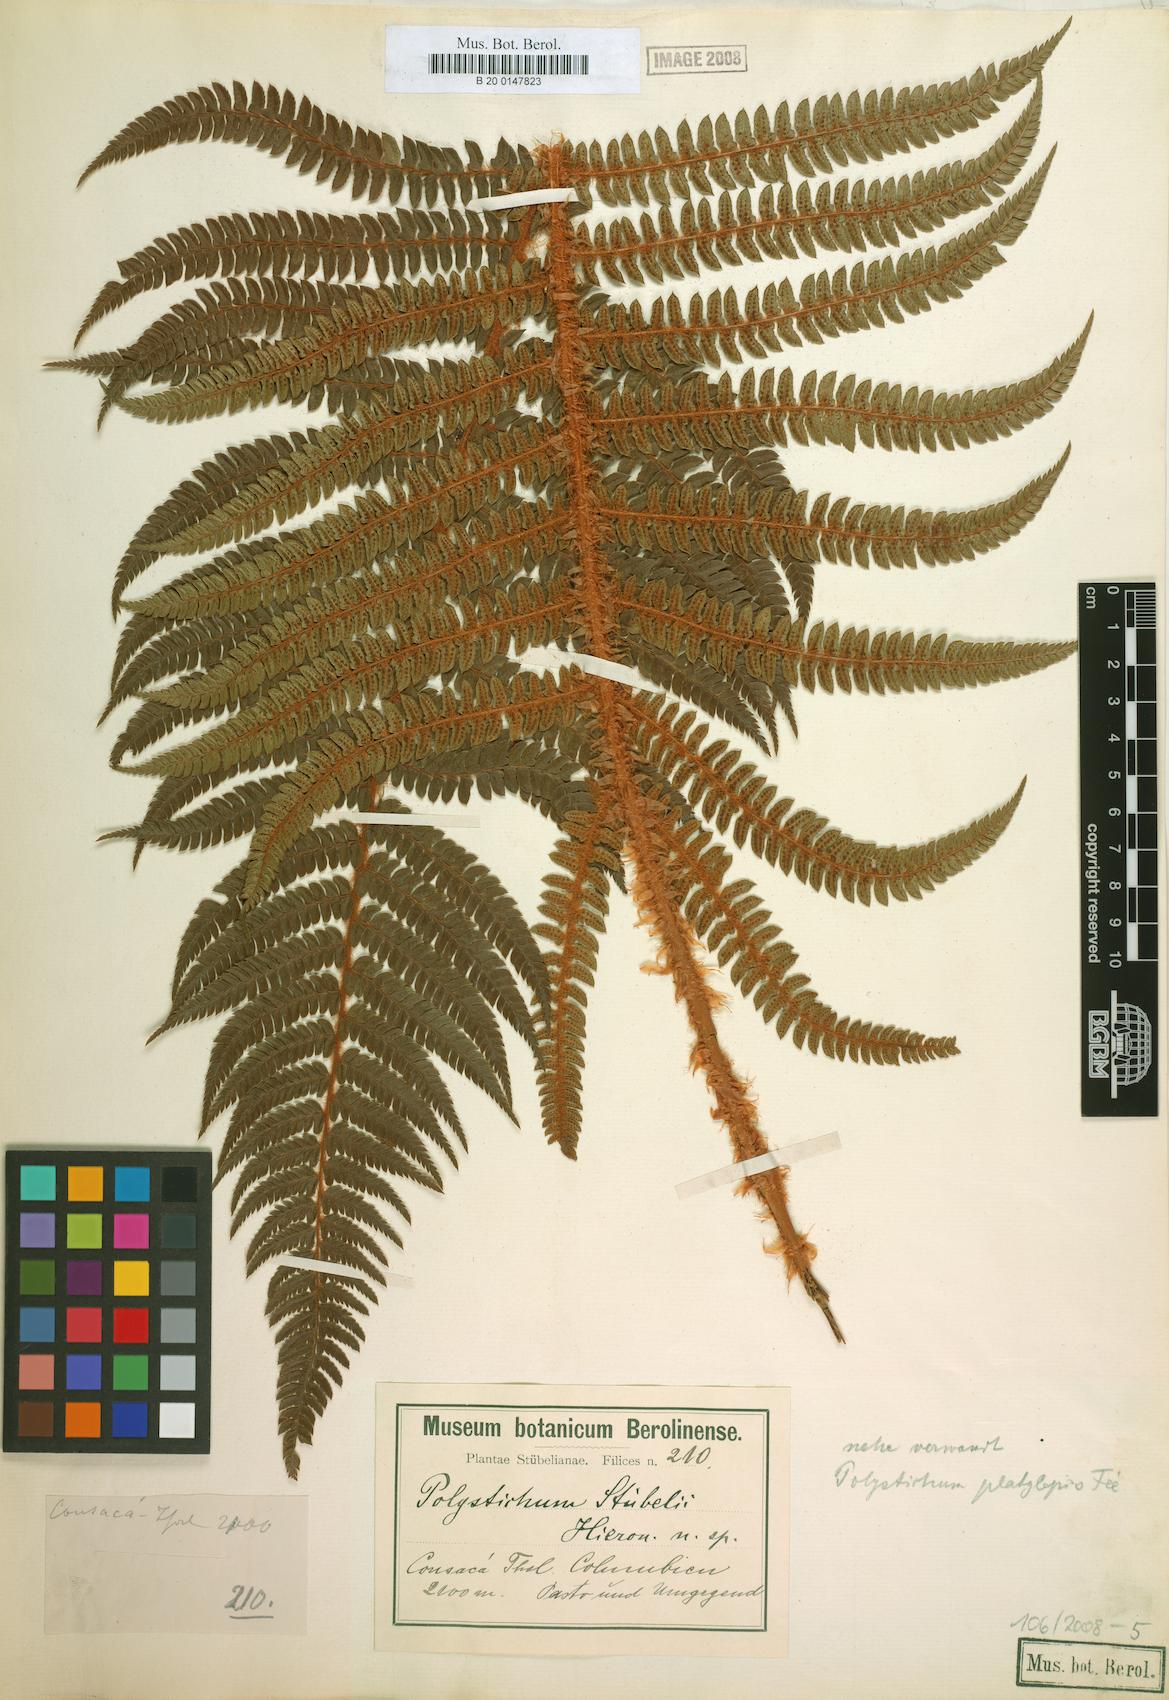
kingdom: Plantae
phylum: Tracheophyta
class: Polypodiopsida
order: Polypodiales
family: Dryopteridaceae
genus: Polystichum
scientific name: Polystichum stuebelii
